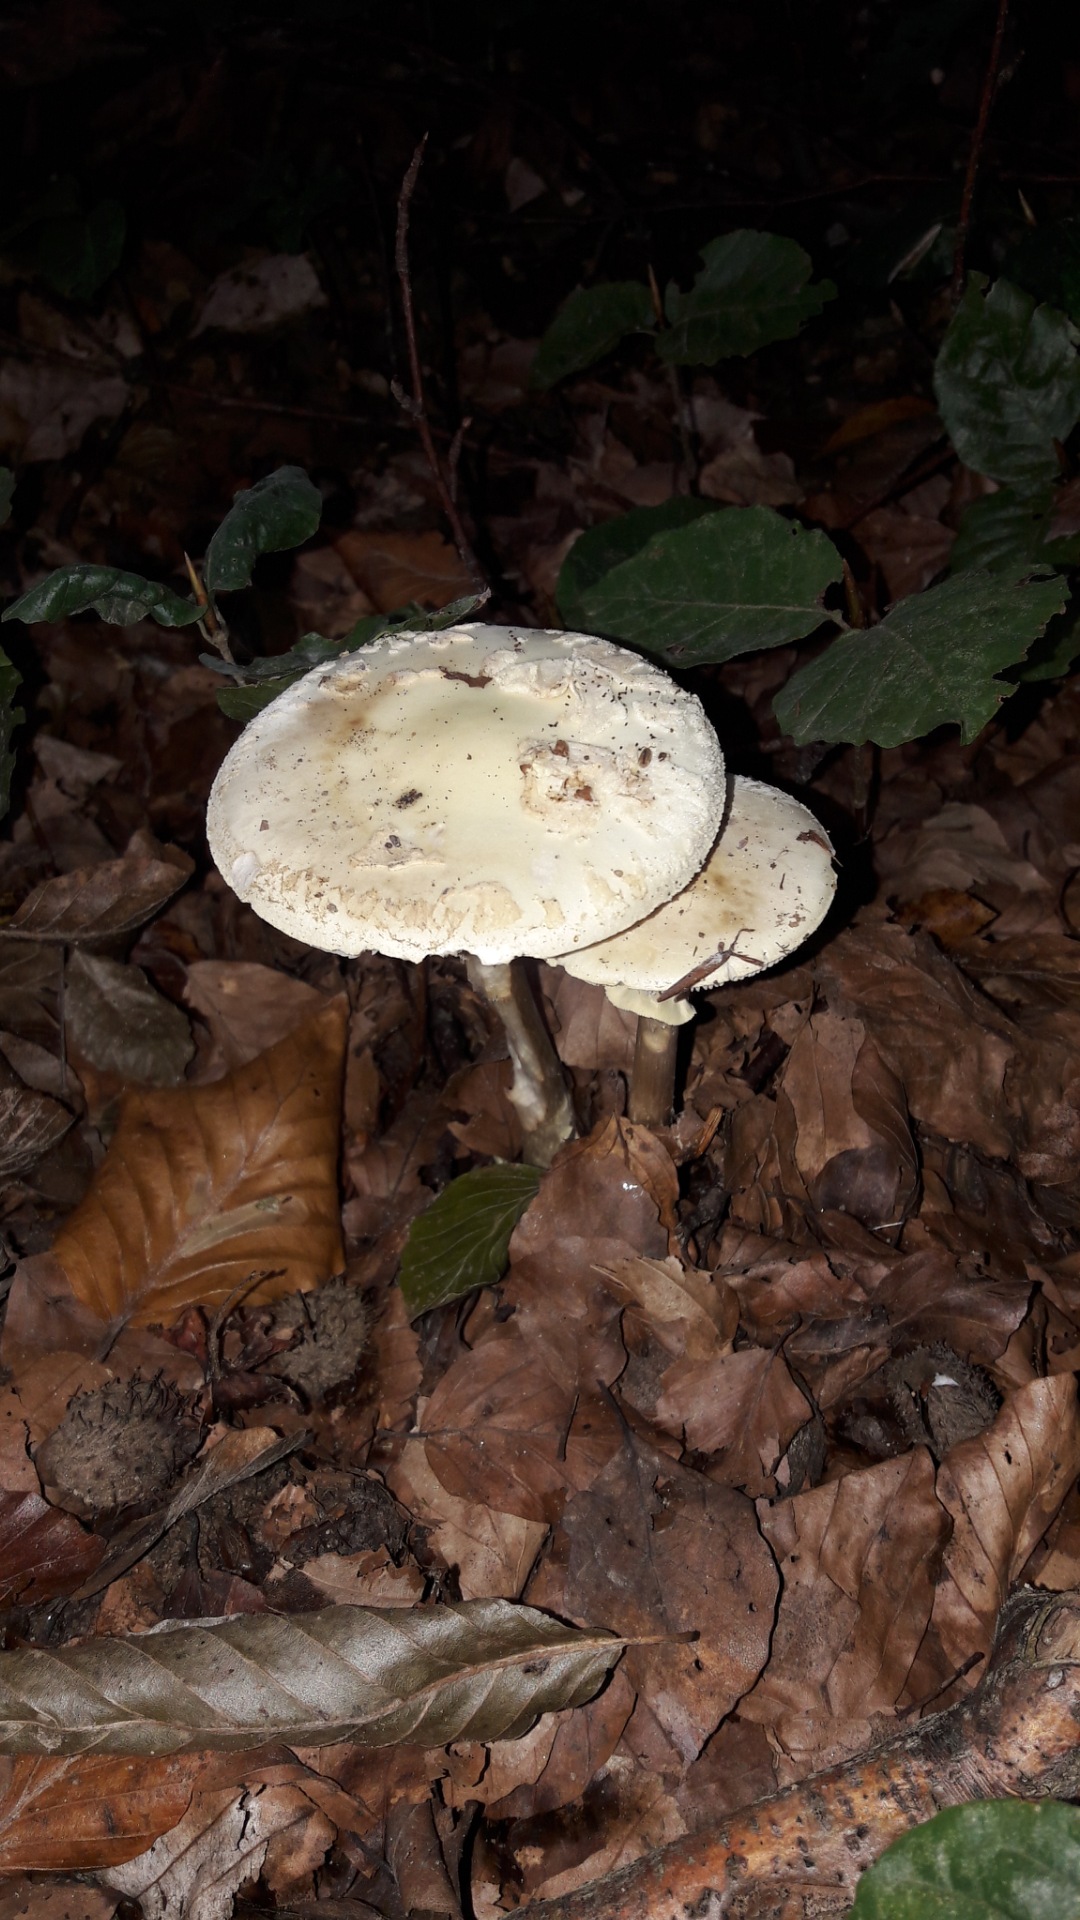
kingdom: Fungi
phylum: Basidiomycota
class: Agaricomycetes
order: Agaricales
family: Amanitaceae
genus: Amanita
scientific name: Amanita citrina
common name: kugleknoldet fluesvamp
